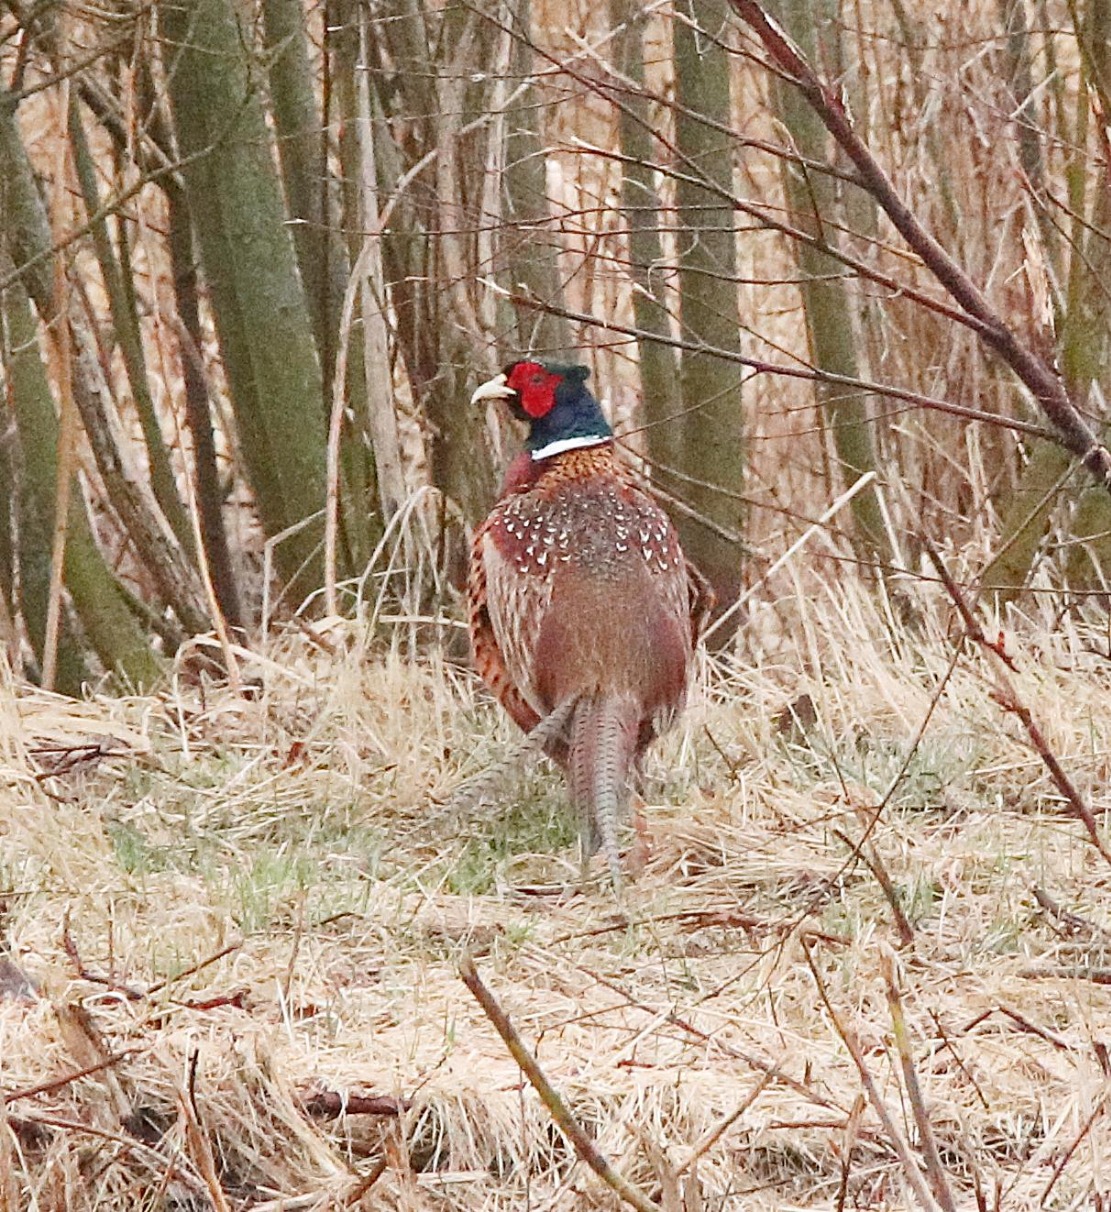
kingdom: Animalia
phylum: Chordata
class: Aves
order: Galliformes
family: Phasianidae
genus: Phasianus
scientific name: Phasianus colchicus
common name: Fasan
